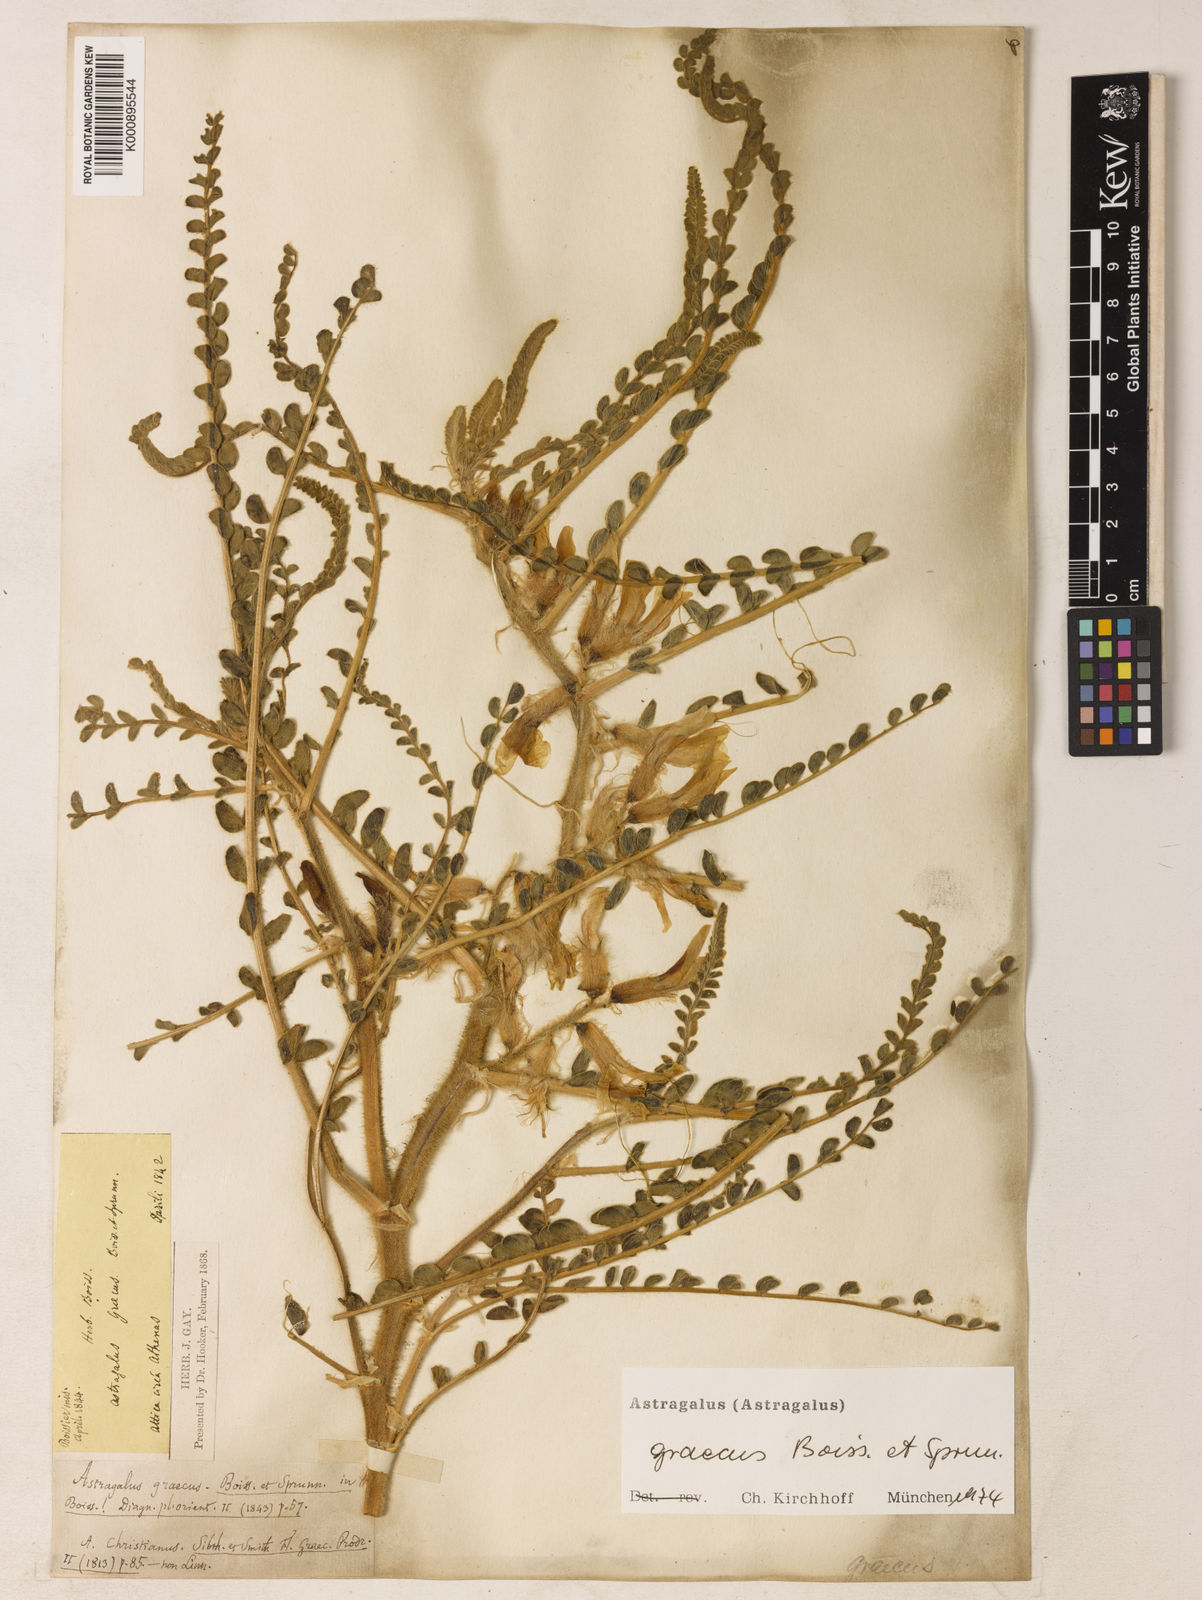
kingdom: Plantae
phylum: Tracheophyta
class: Magnoliopsida
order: Fabales
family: Fabaceae
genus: Astragalus
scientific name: Astragalus graecus
